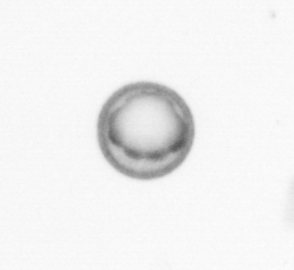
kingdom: Chromista
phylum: Myzozoa
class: Dinophyceae
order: Noctilucales
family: Noctilucaceae
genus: Noctiluca
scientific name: Noctiluca scintillans
